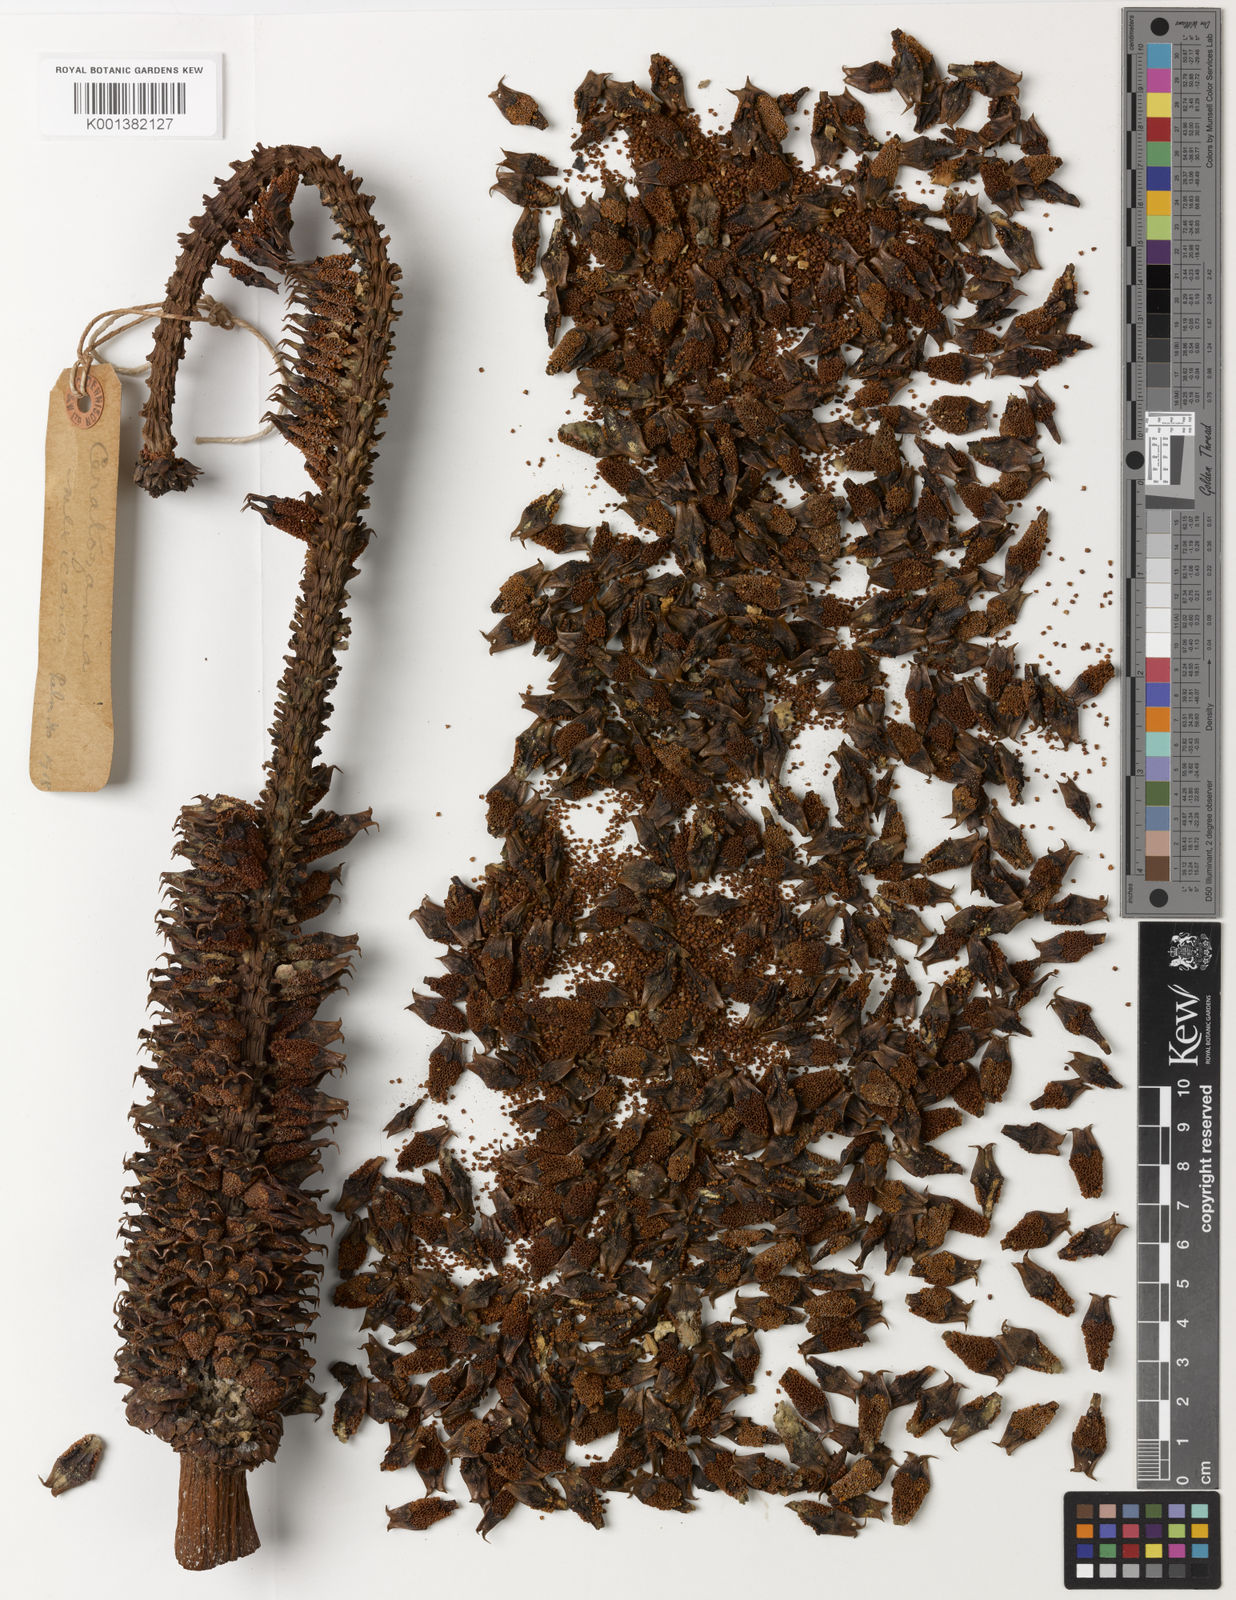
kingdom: Plantae
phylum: Tracheophyta
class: Cycadopsida
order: Cycadales
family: Zamiaceae
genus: Ceratozamia
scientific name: Ceratozamia mexicana
